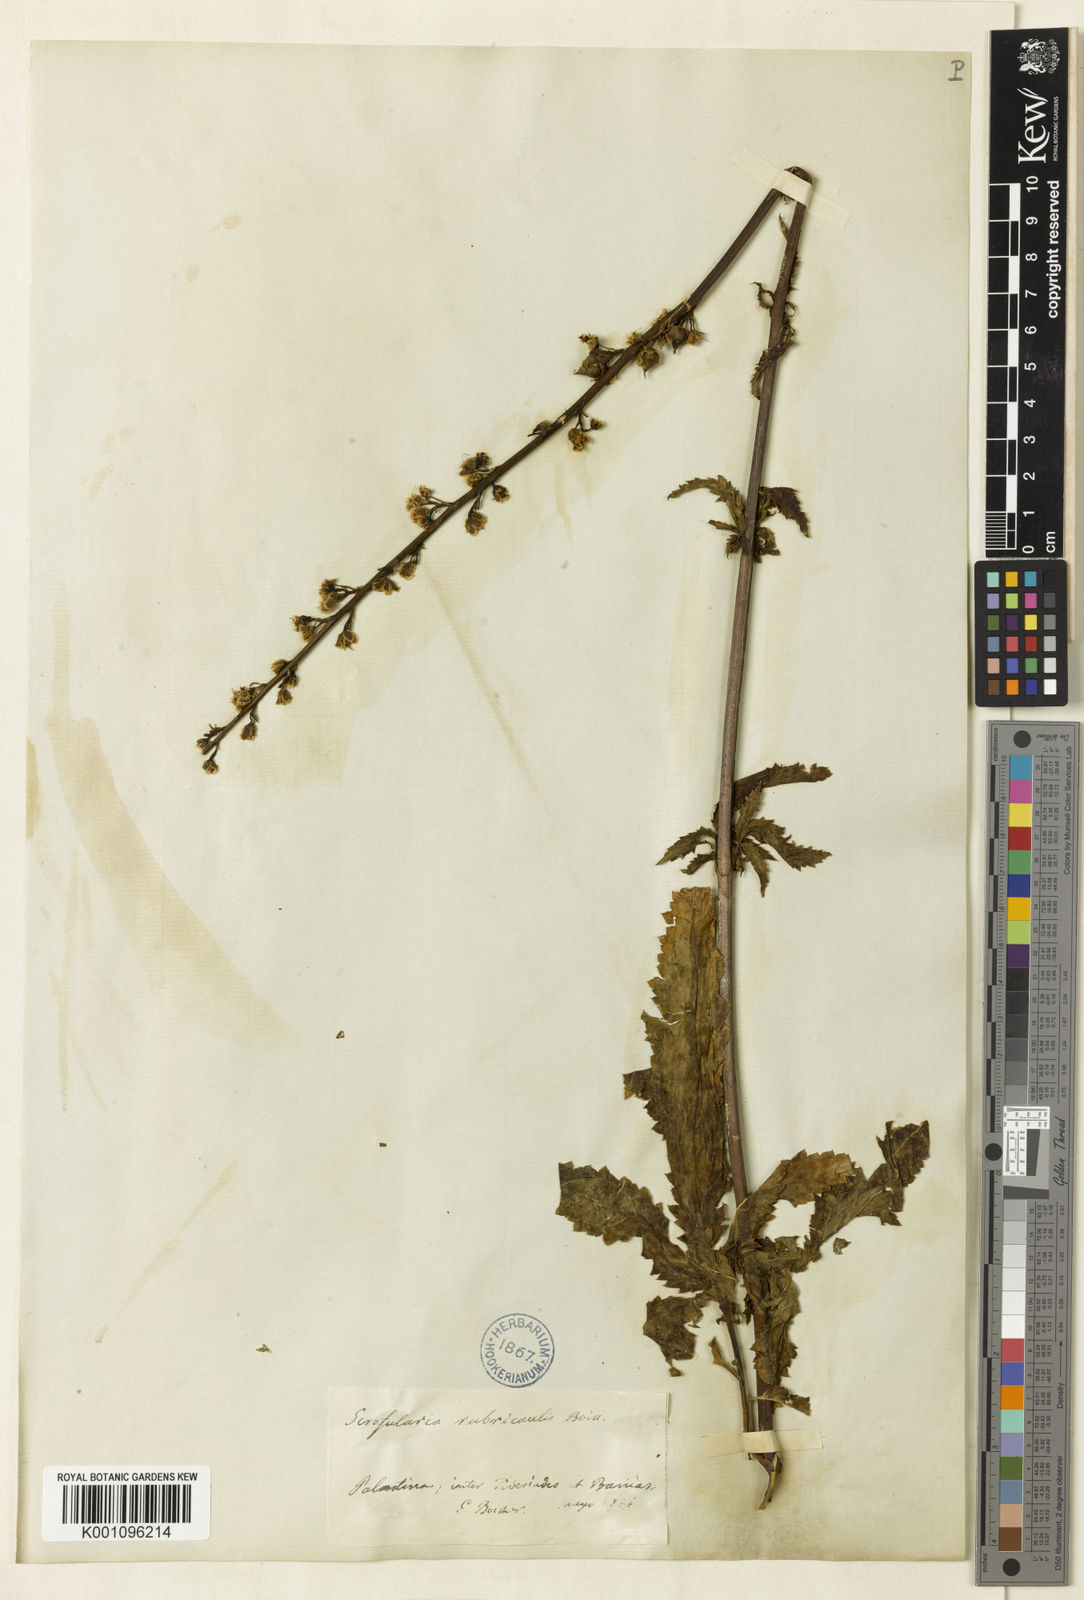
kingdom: Plantae
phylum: Tracheophyta
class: Magnoliopsida
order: Lamiales
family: Scrophulariaceae
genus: Scrophularia
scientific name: Scrophularia rubricaulis
